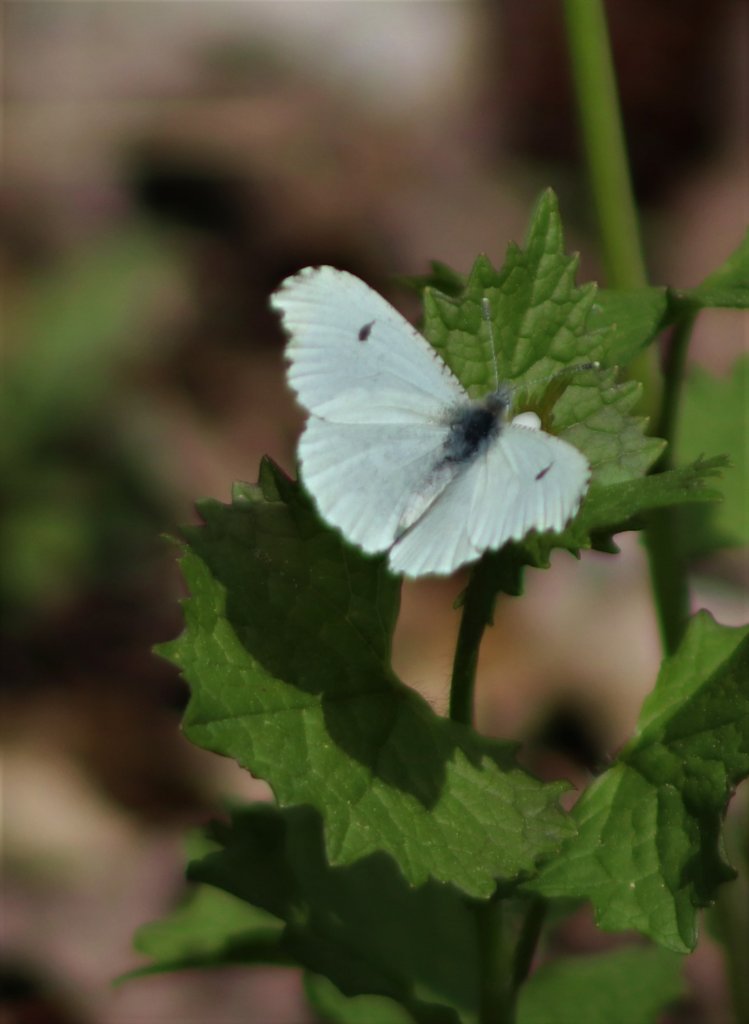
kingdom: Animalia
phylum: Arthropoda
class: Insecta
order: Lepidoptera
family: Pieridae
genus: Anthocharis
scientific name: Anthocharis
